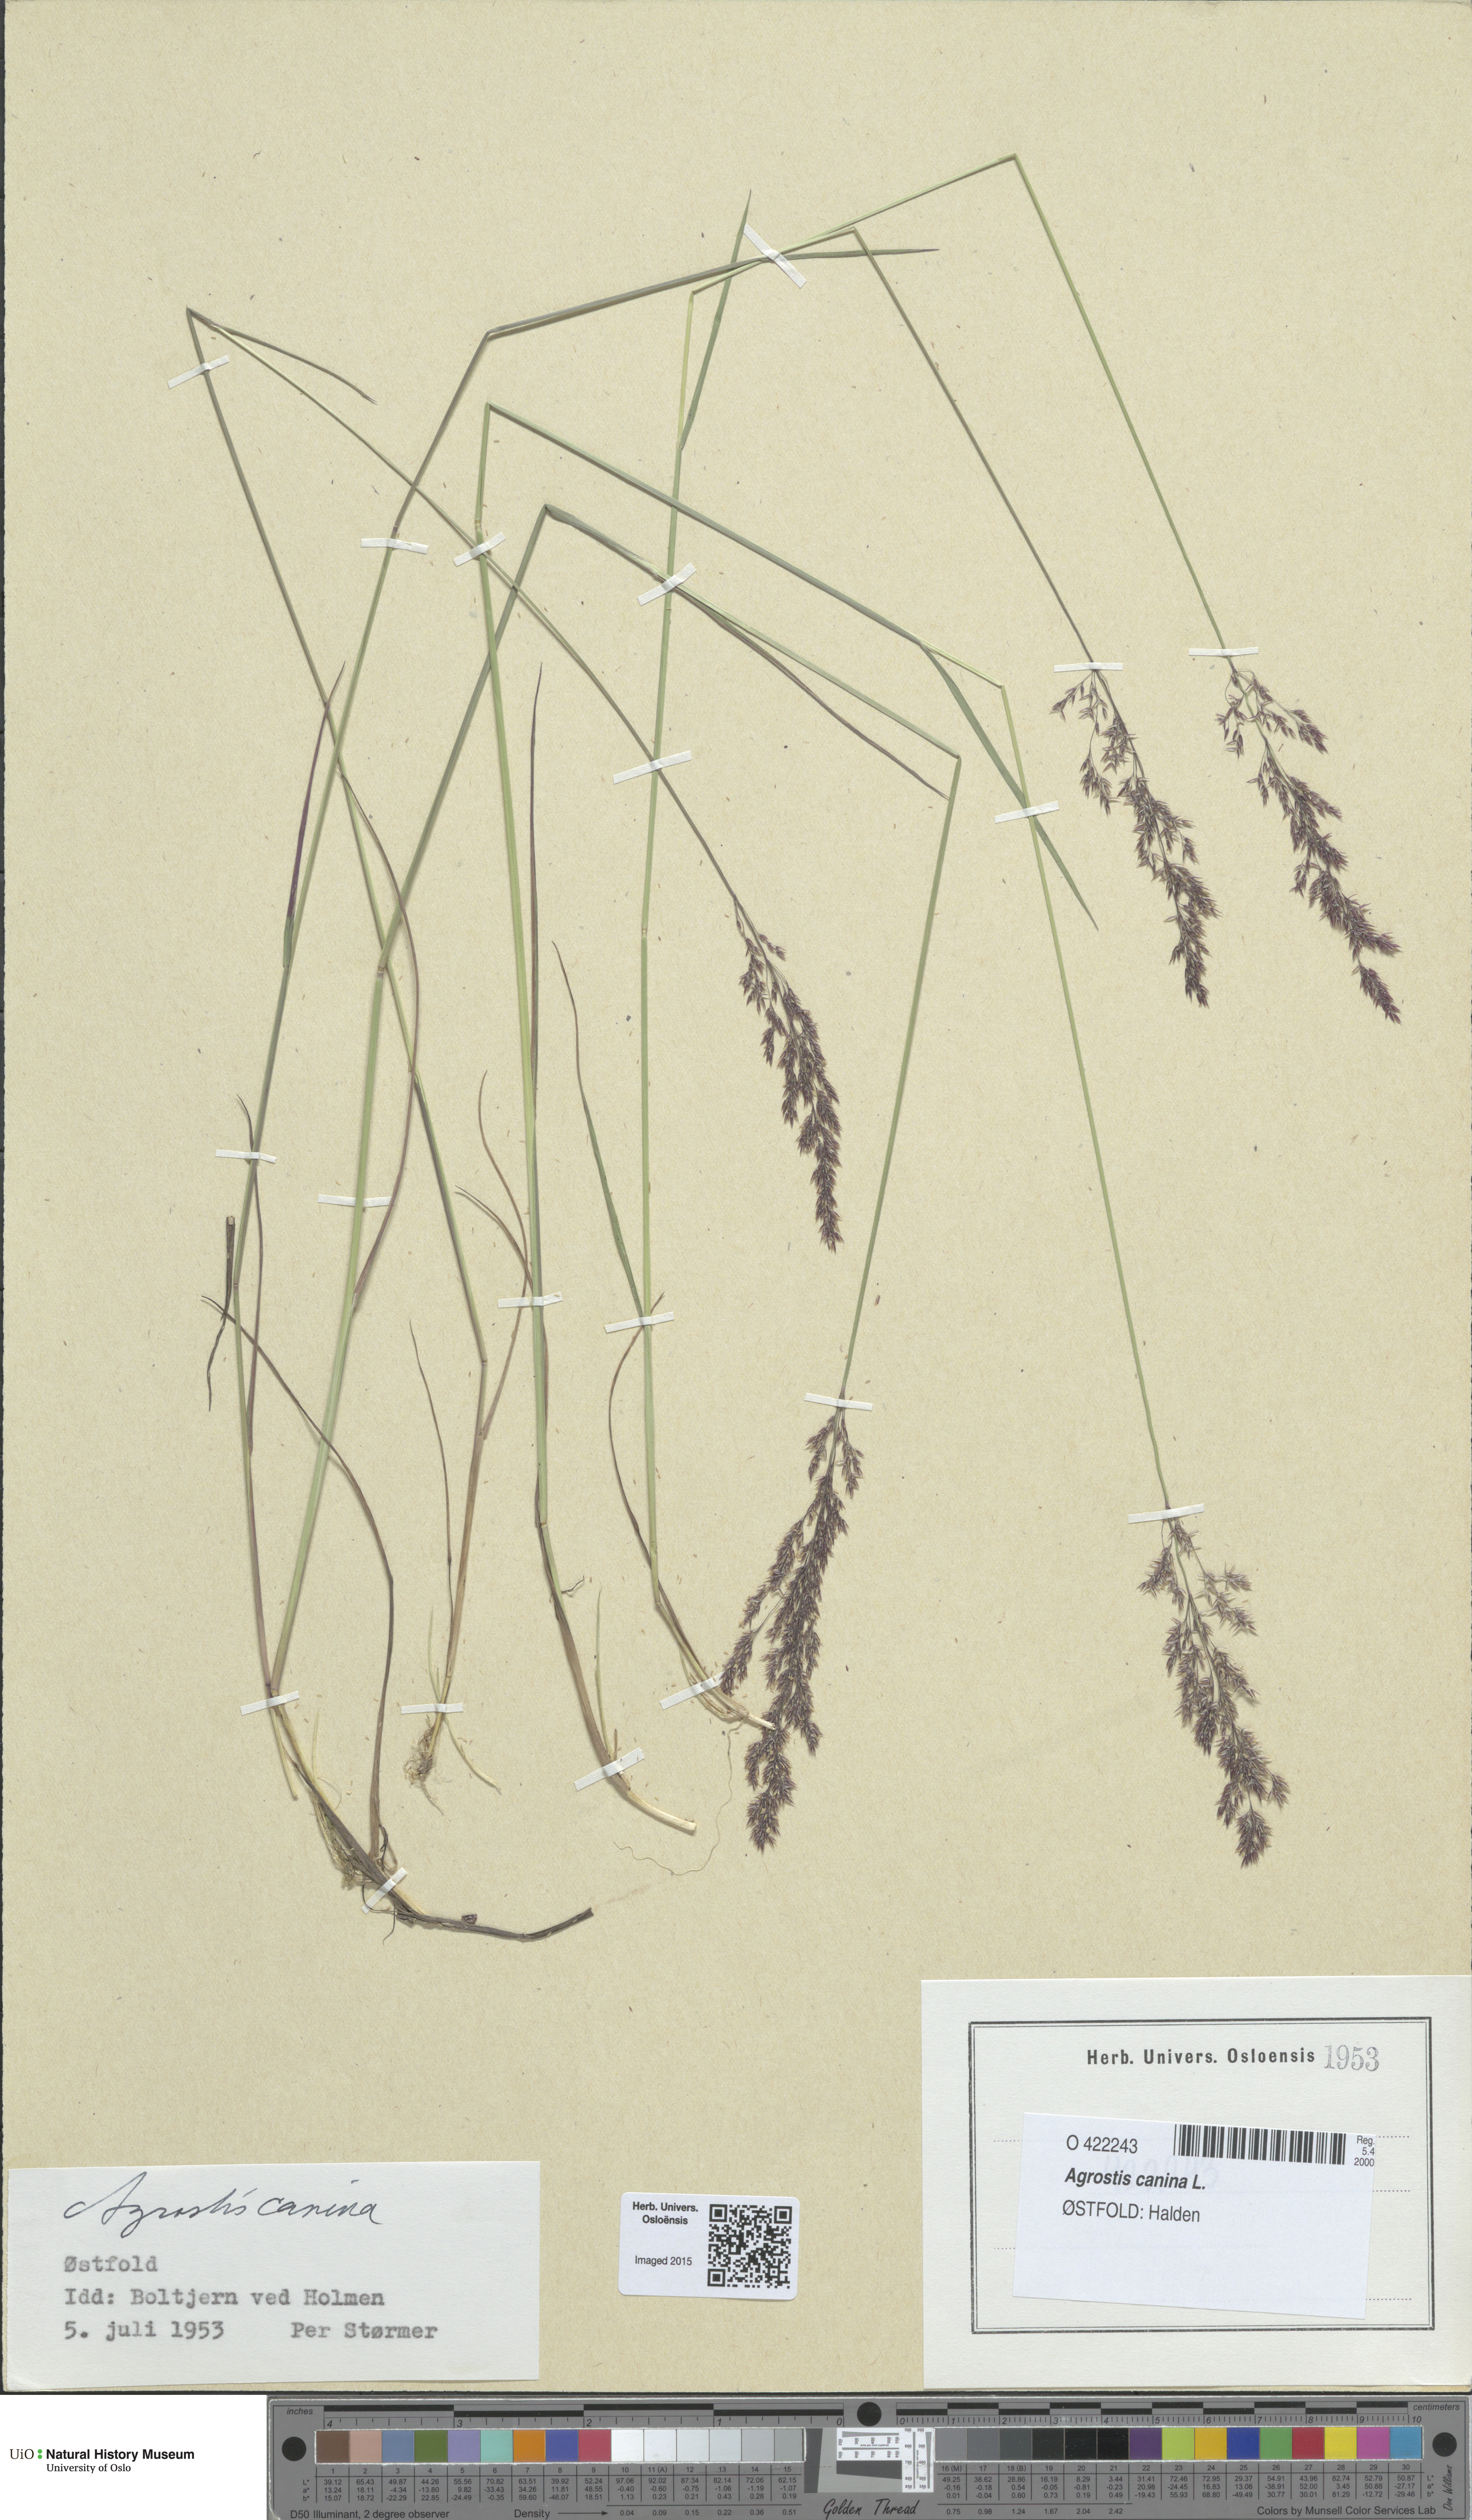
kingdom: Plantae
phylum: Tracheophyta
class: Liliopsida
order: Poales
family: Poaceae
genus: Agrostis
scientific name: Agrostis canina
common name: Velvet bent
